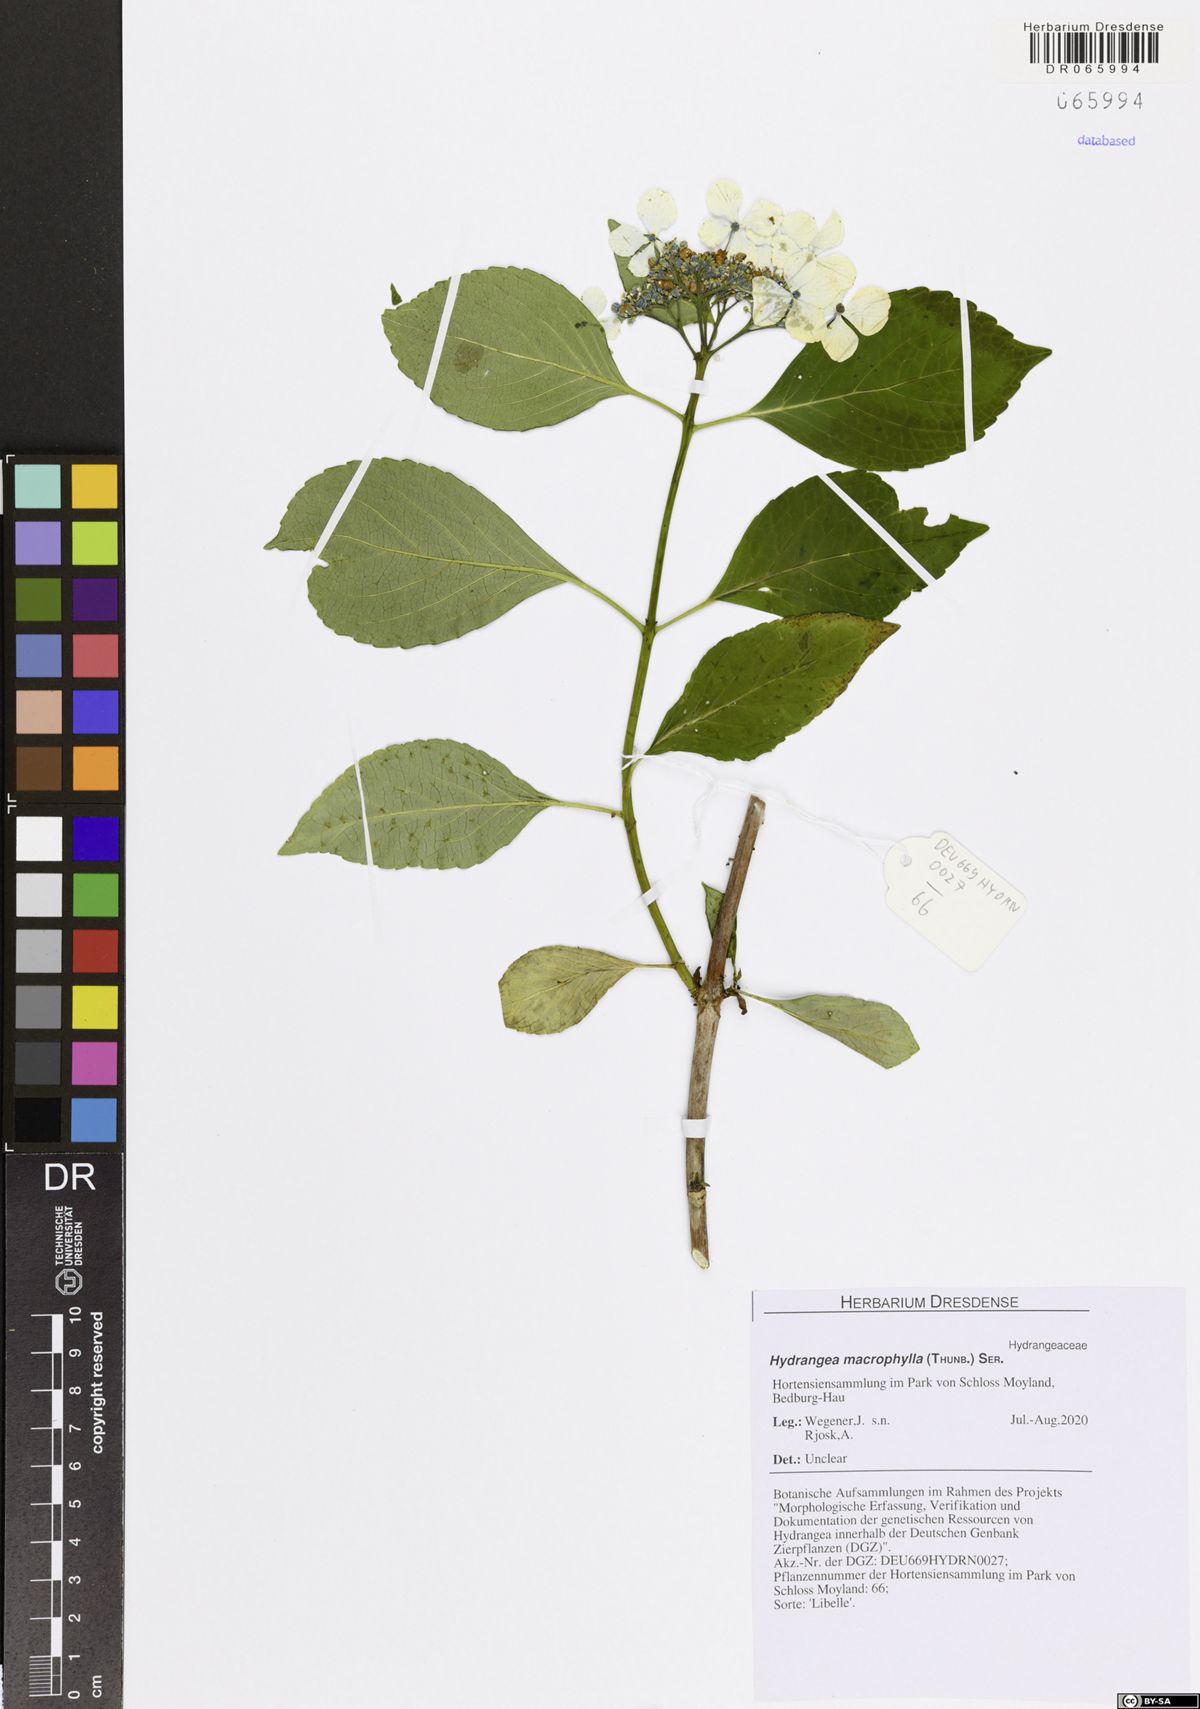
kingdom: Plantae
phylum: Tracheophyta
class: Magnoliopsida
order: Cornales
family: Hydrangeaceae
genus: Hydrangea
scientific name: Hydrangea macrophylla
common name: Hydrangea
